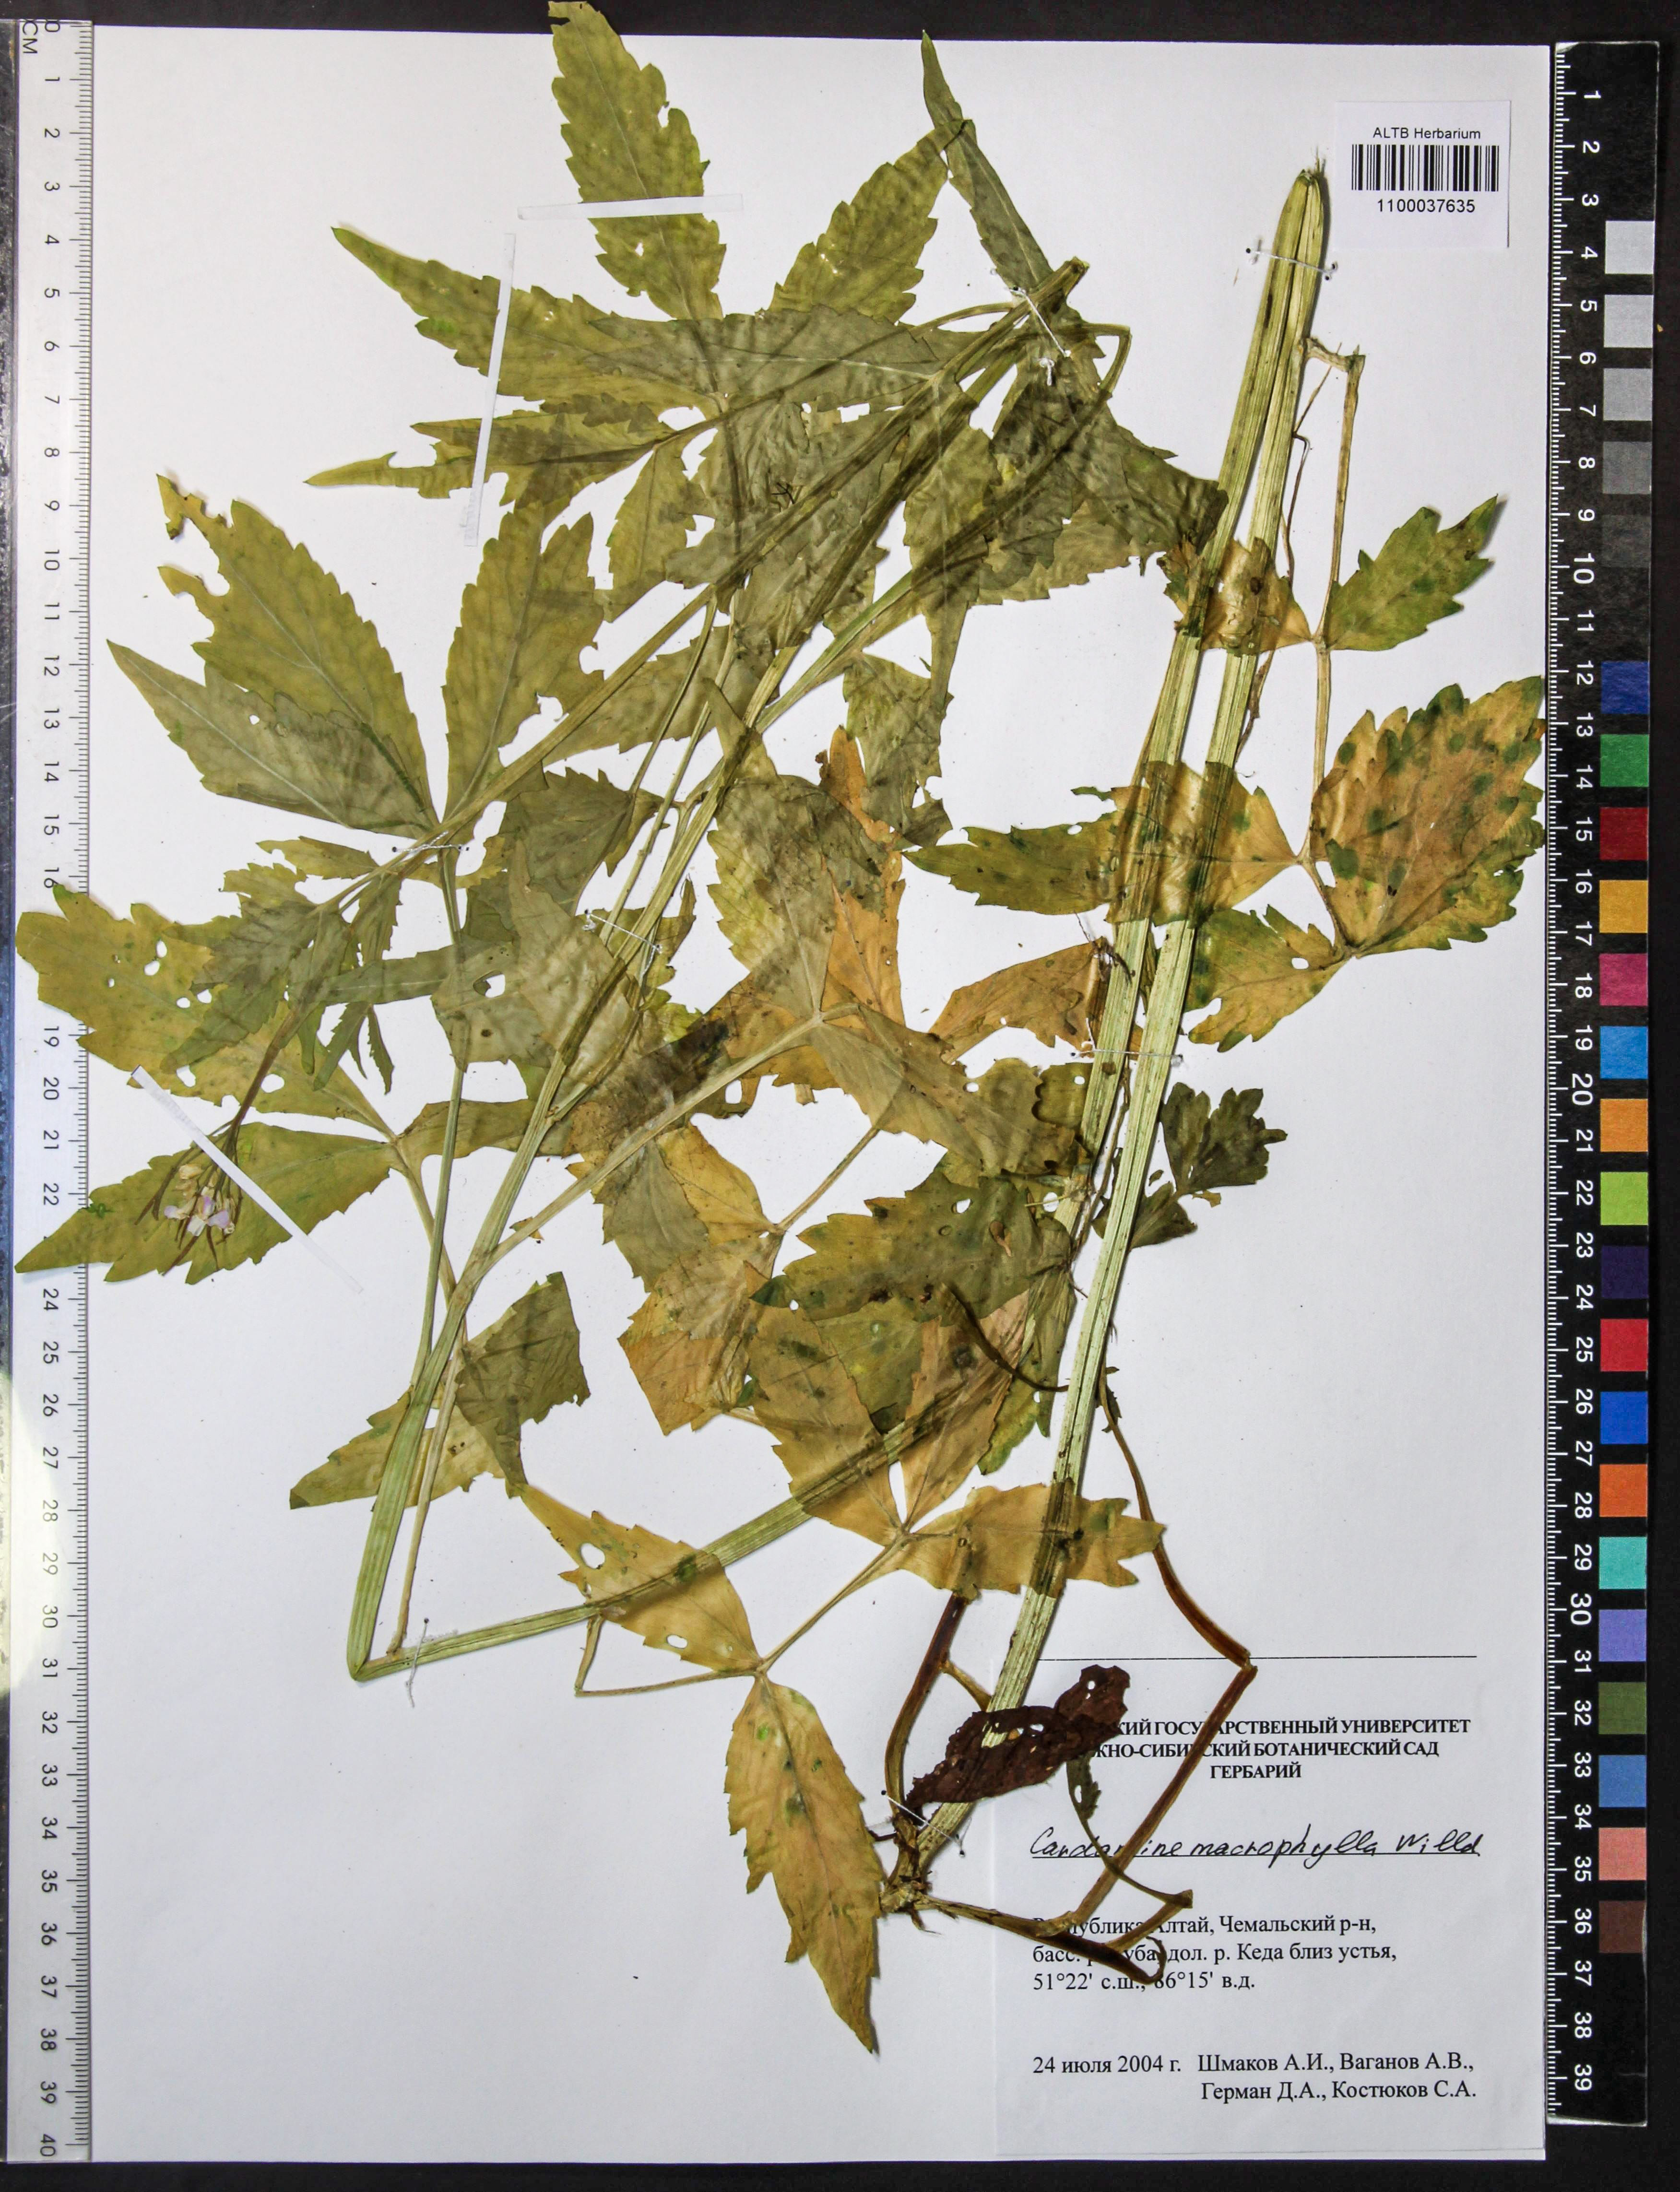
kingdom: Plantae
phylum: Tracheophyta
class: Magnoliopsida
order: Brassicales
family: Brassicaceae
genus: Cardamine
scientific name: Cardamine macrophylla
